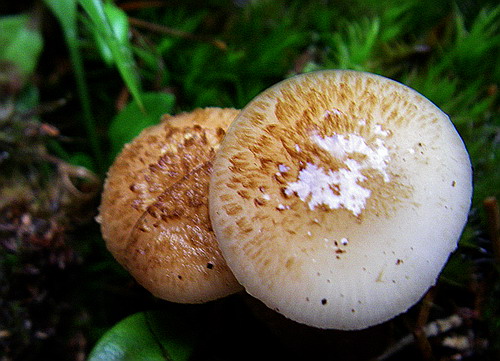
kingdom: Fungi
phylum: Basidiomycota
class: Agaricomycetes
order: Agaricales
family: Physalacriaceae
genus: Armillaria
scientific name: Armillaria ostoyae
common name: mørk honningsvamp
